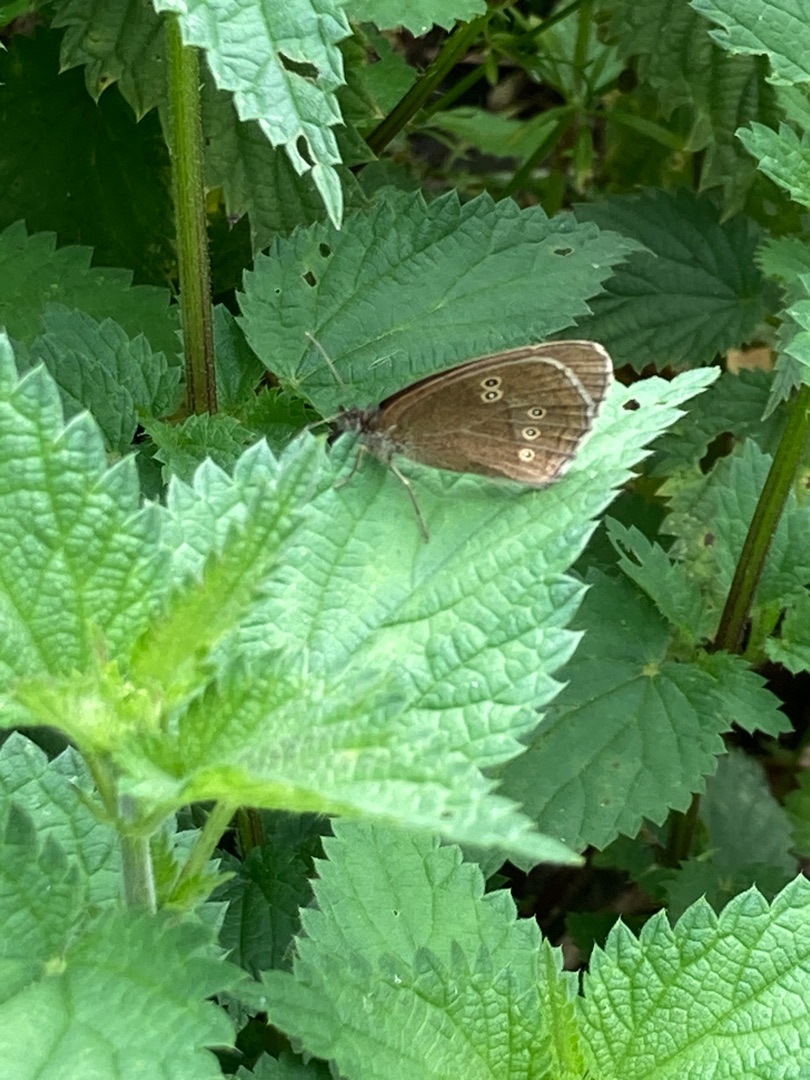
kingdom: Animalia
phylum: Arthropoda
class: Insecta
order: Lepidoptera
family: Nymphalidae
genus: Aphantopus
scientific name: Aphantopus hyperantus
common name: Engrandøje
